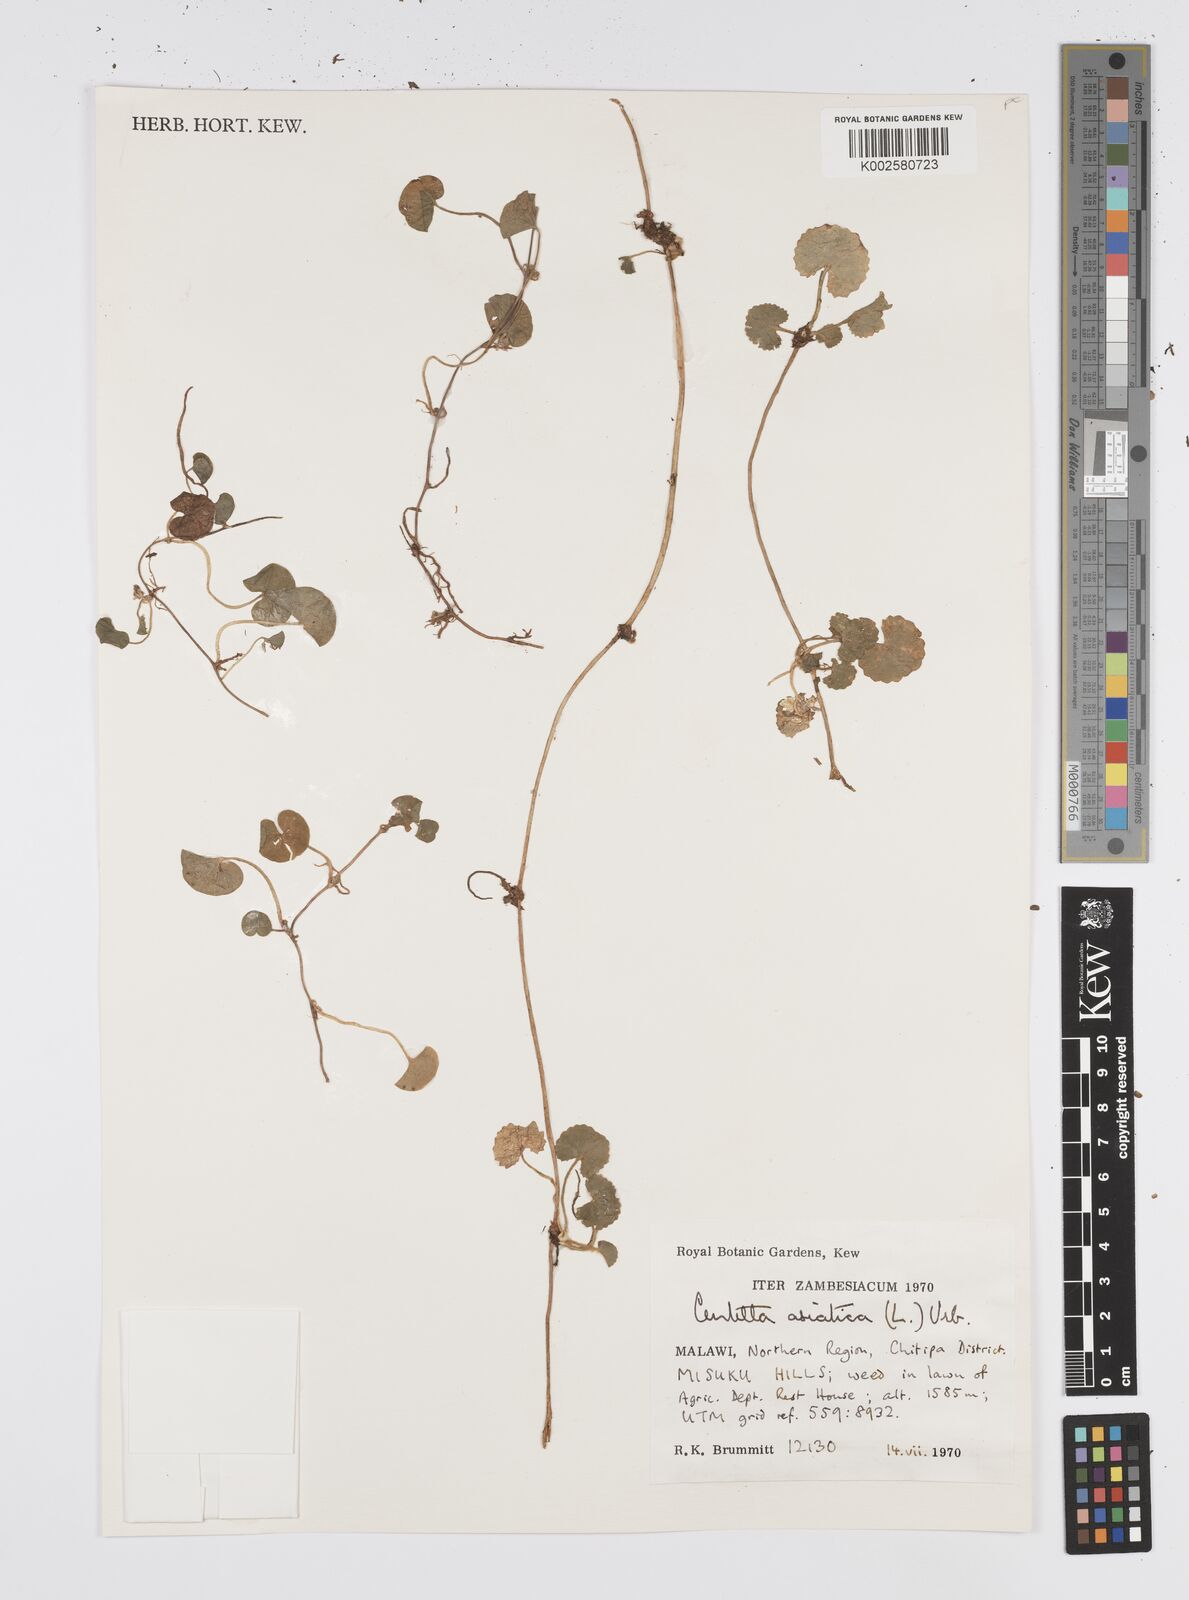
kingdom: Plantae
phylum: Tracheophyta
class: Magnoliopsida
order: Apiales
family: Apiaceae
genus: Centella
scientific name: Centella asiatica
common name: Spadeleaf
